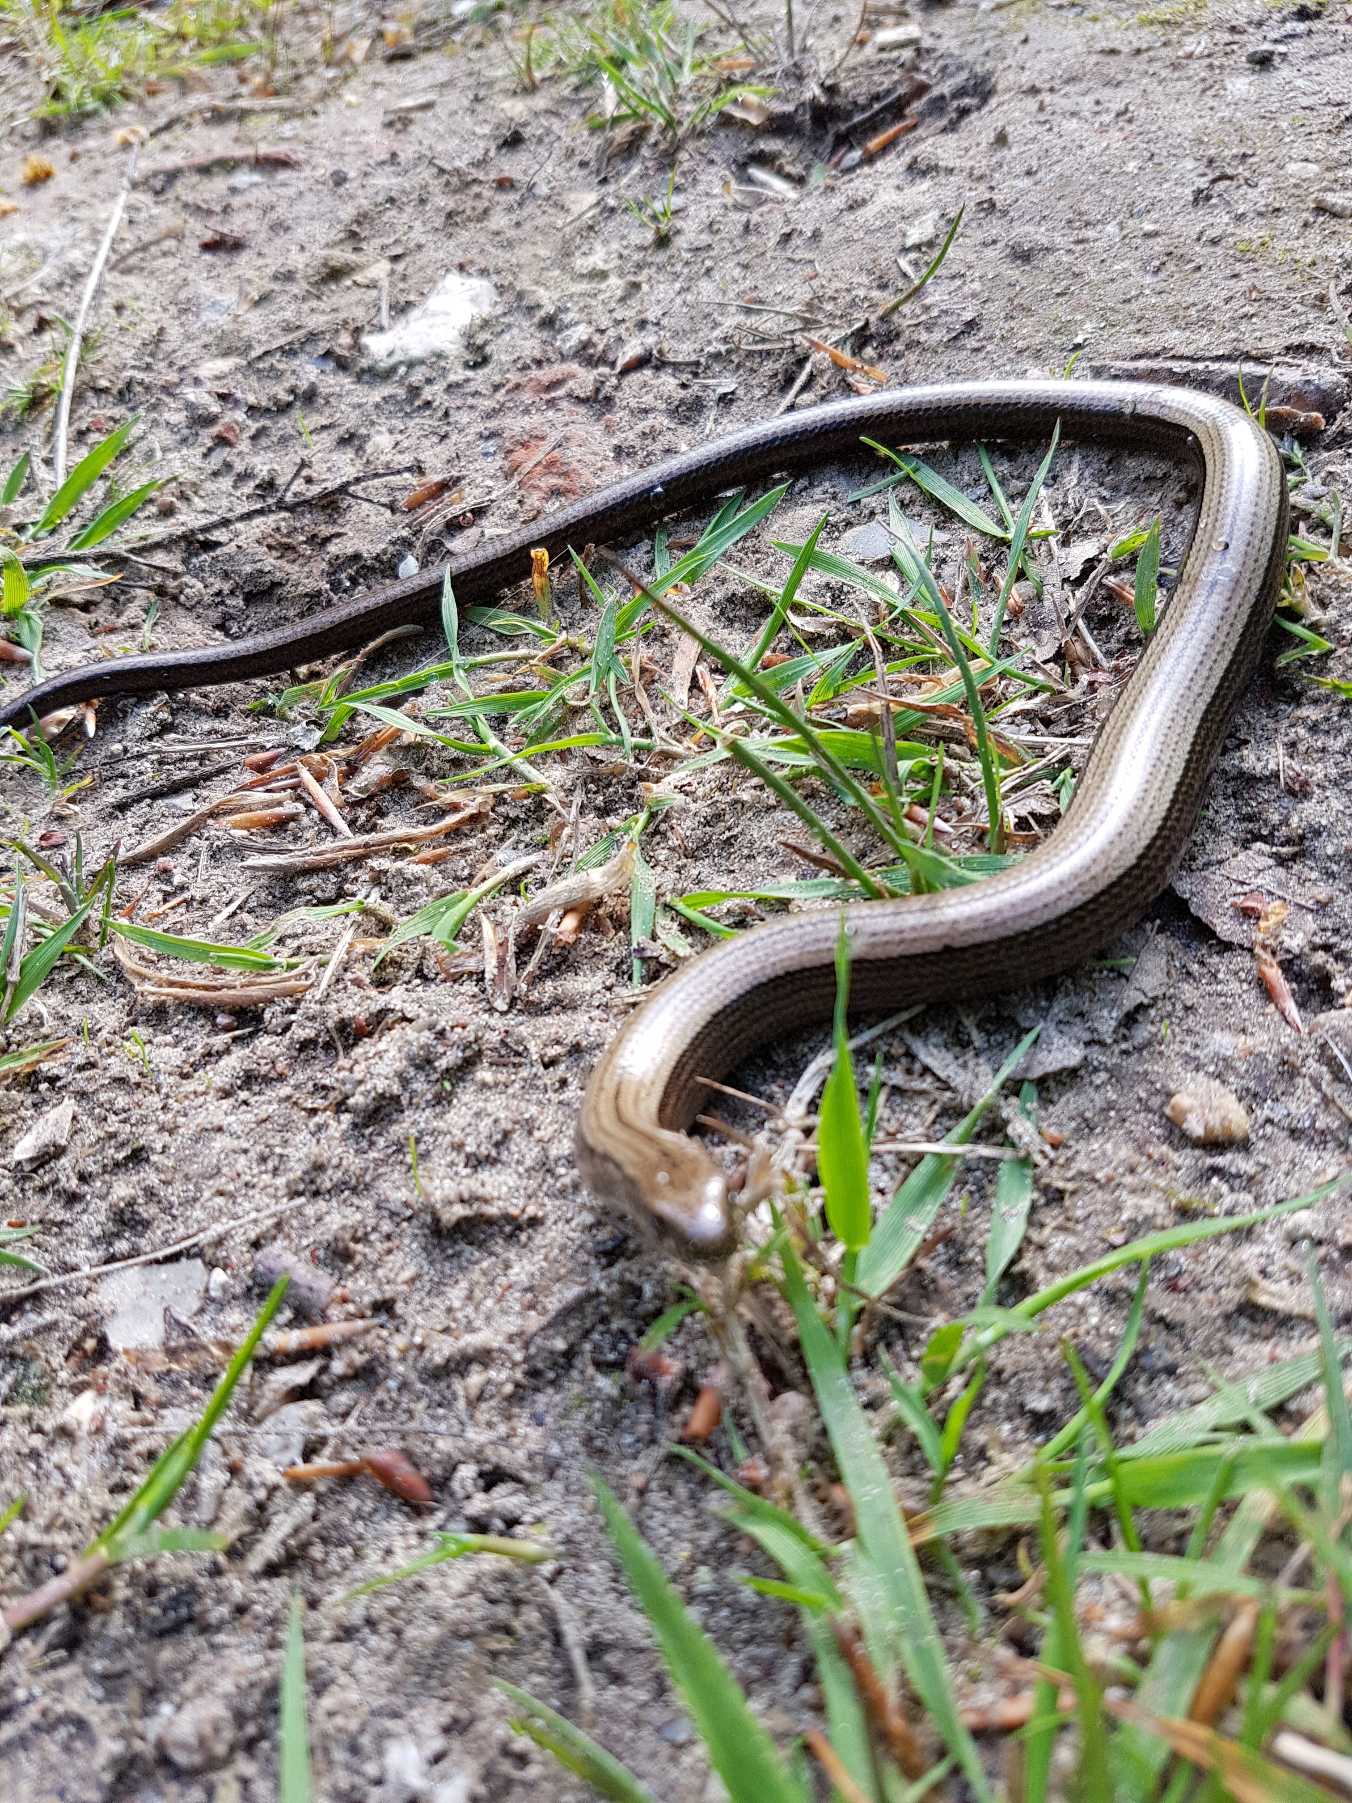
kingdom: Animalia
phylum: Chordata
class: Squamata
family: Anguidae
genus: Anguis
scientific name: Anguis fragilis
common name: Stålorm
